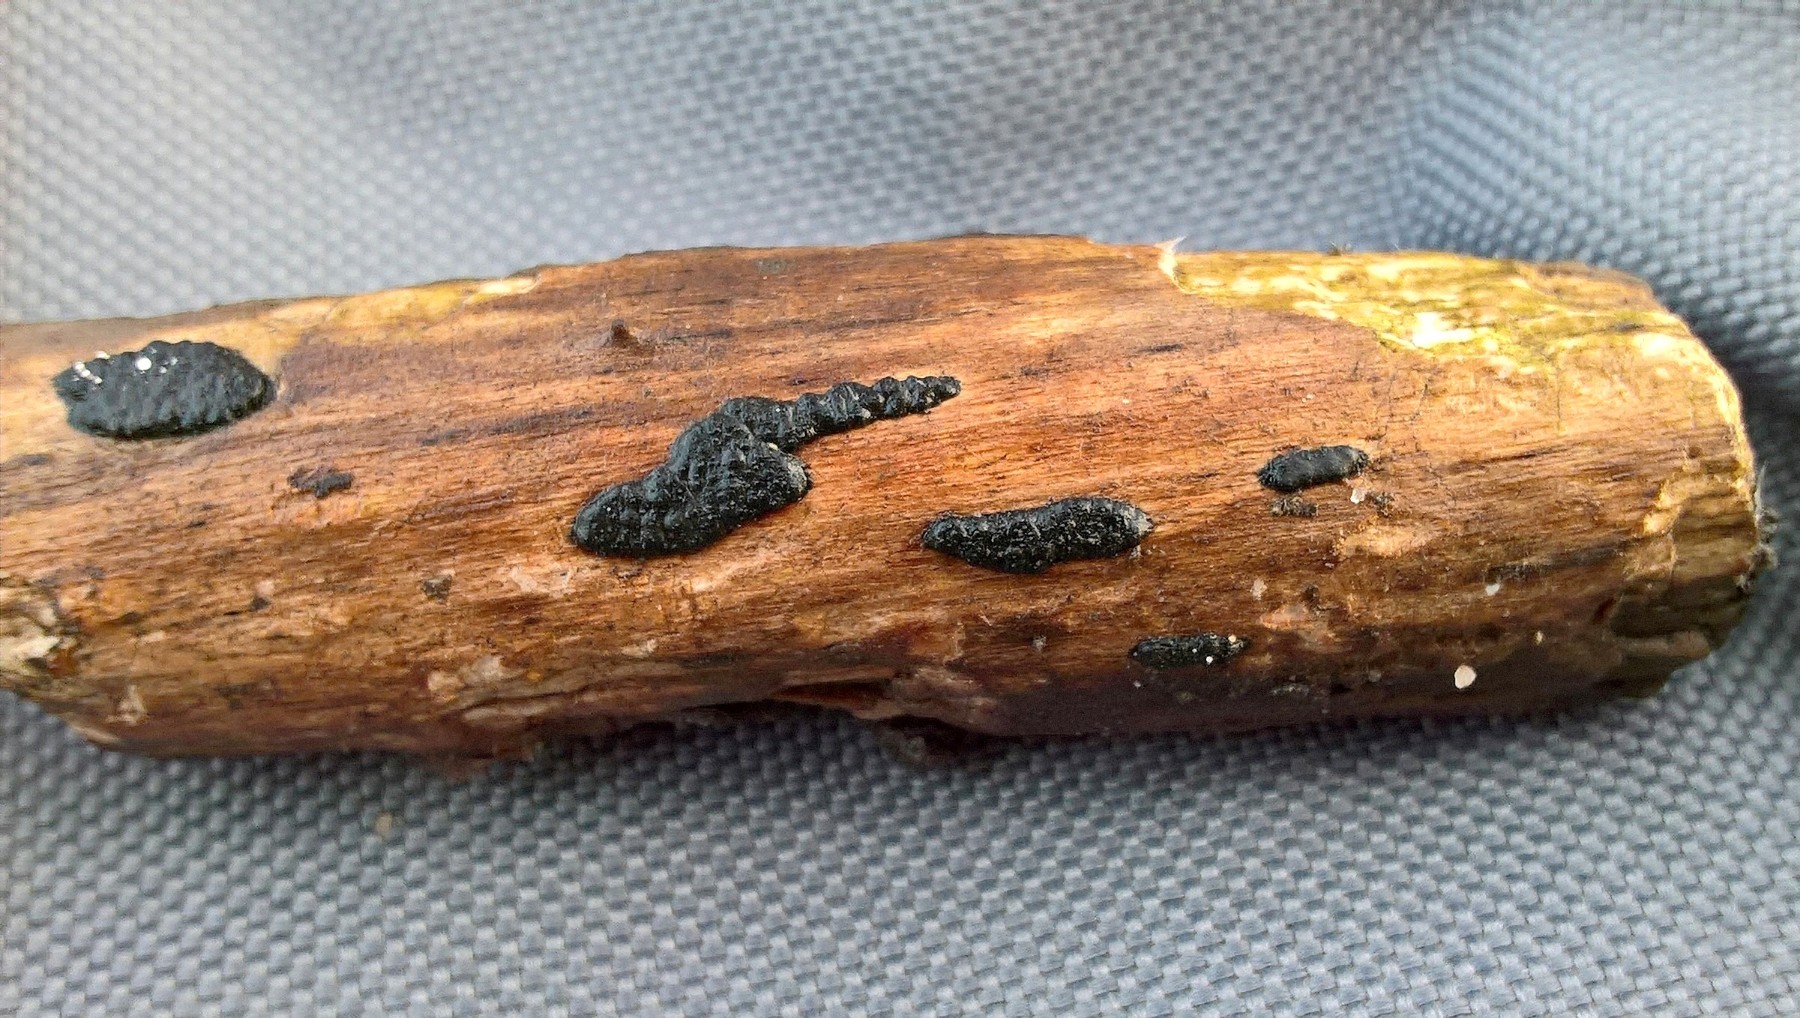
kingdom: Fungi
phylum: Ascomycota
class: Sordariomycetes
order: Xylariales
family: Xylariaceae
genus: Nemania
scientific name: Nemania
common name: kuldyne
